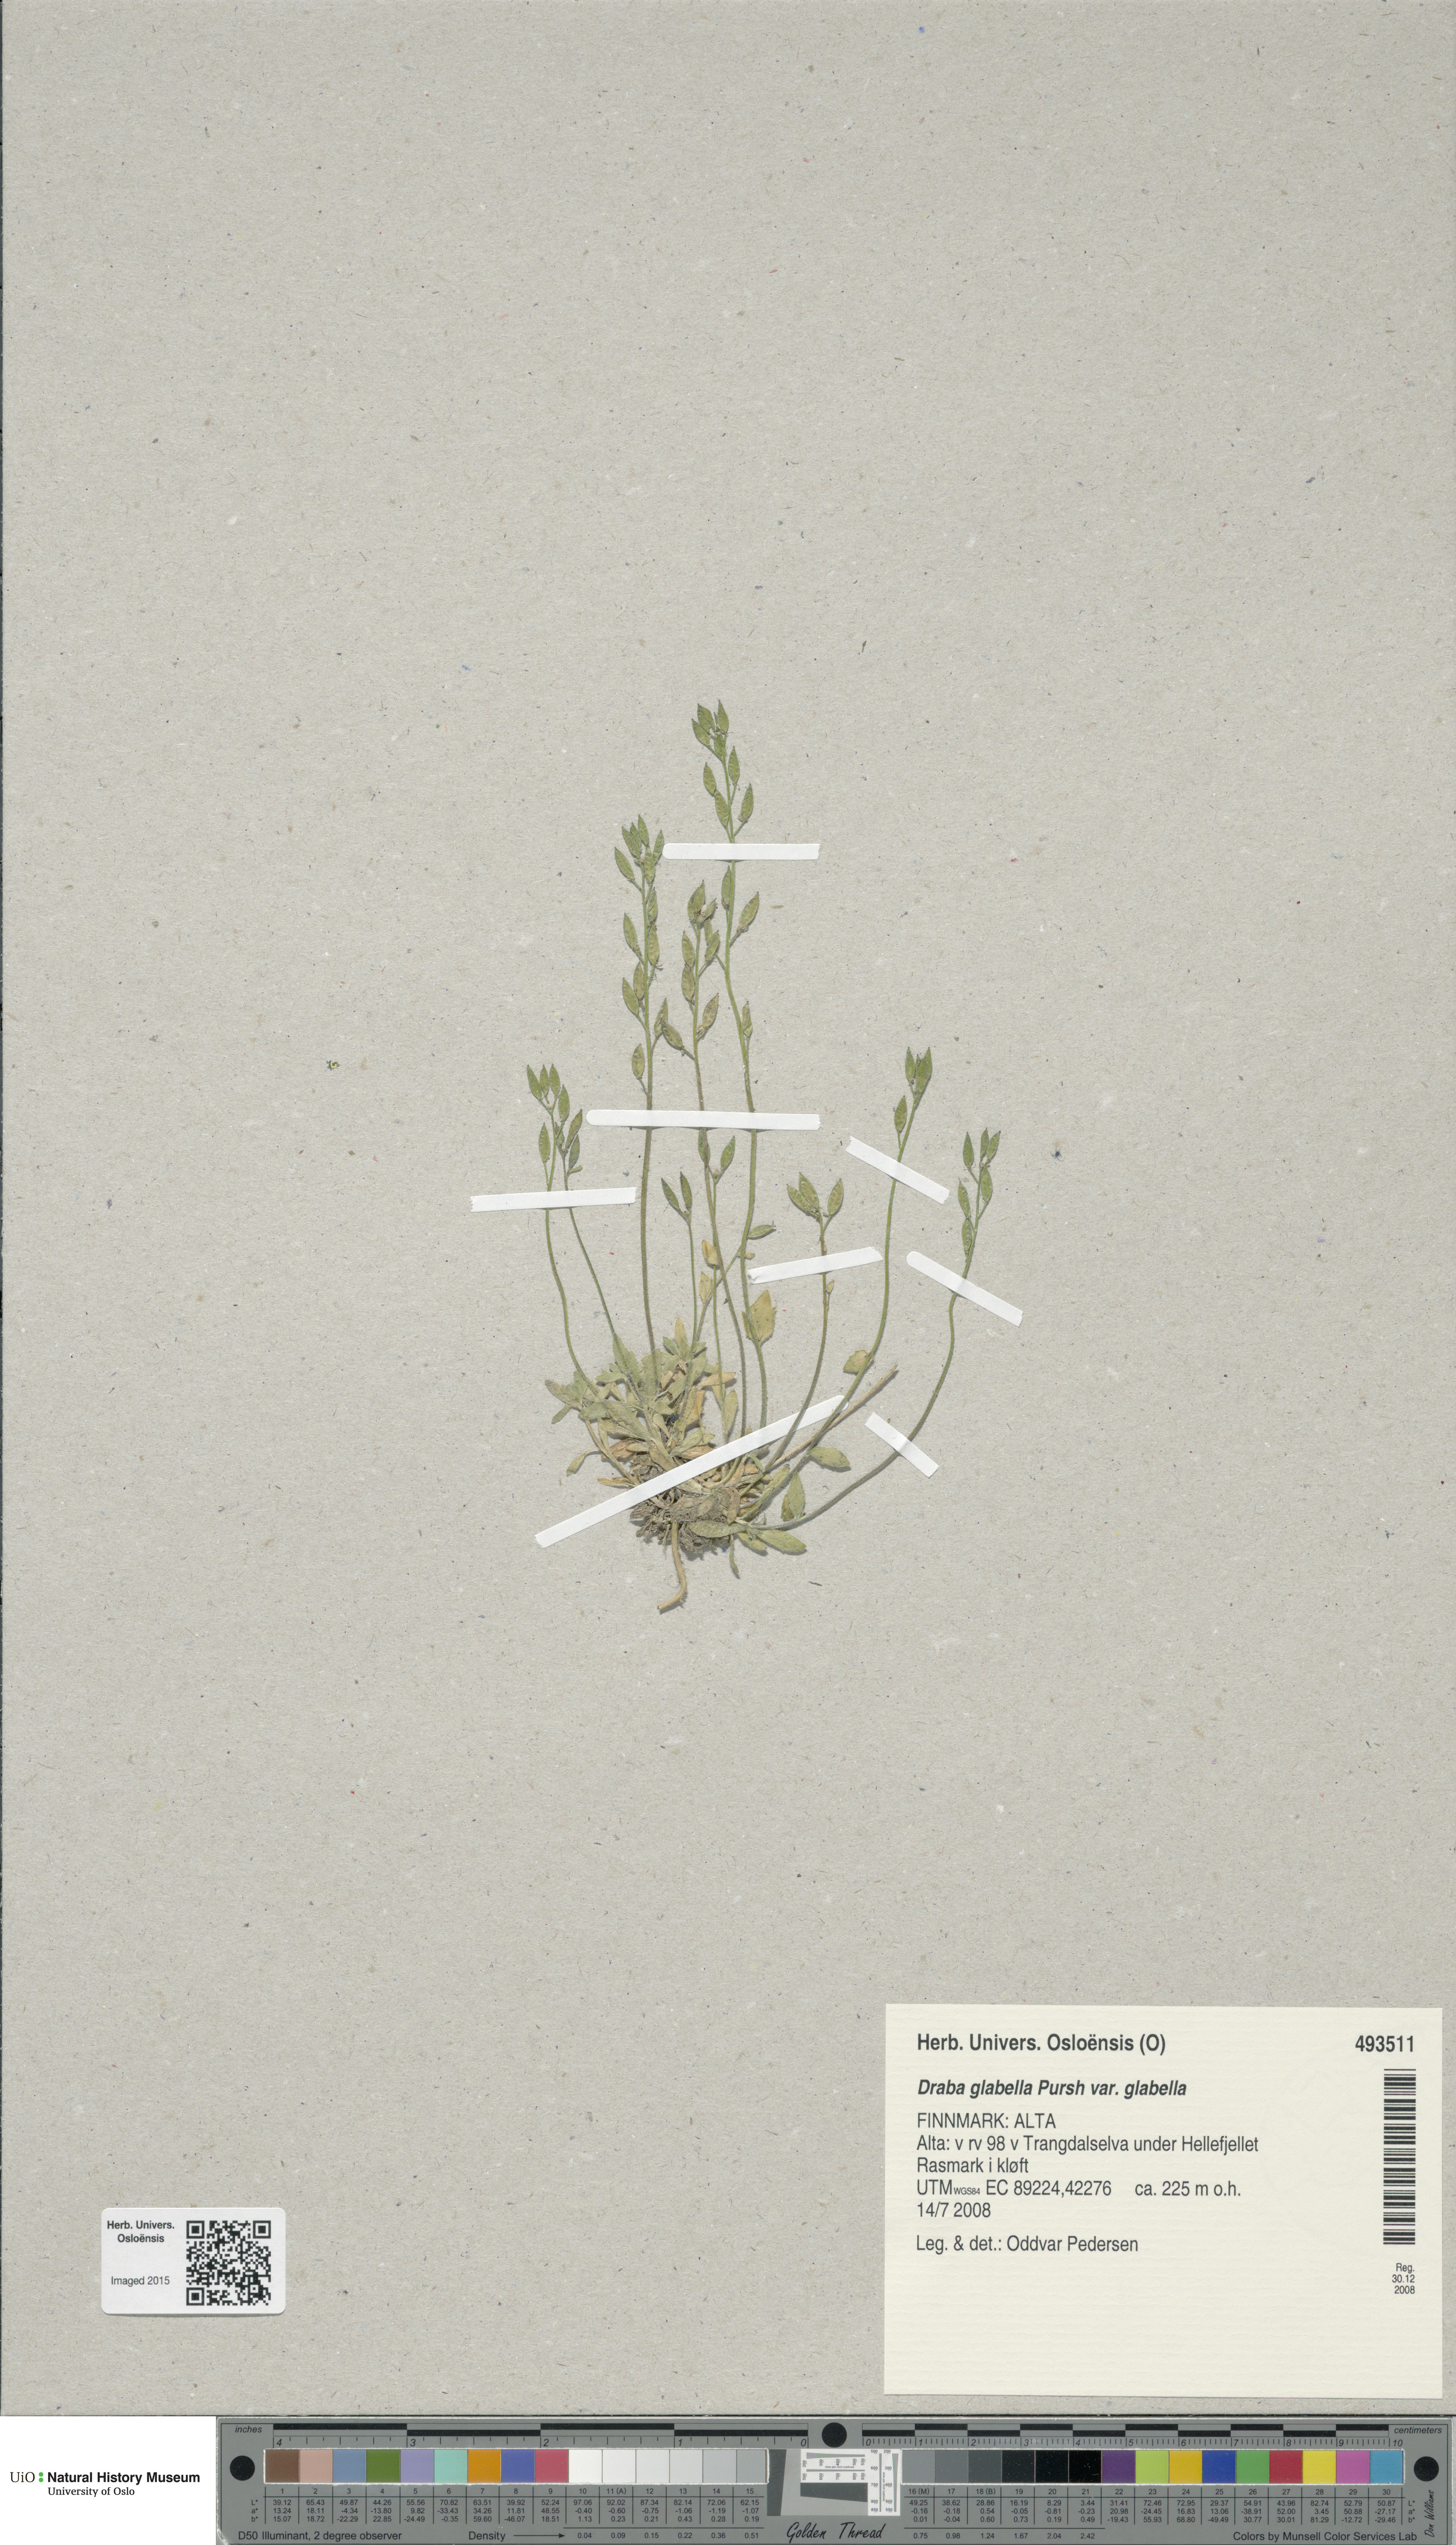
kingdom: Plantae
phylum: Tracheophyta
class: Magnoliopsida
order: Brassicales
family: Brassicaceae
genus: Draba
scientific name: Draba glabella
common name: Glaucous draba
